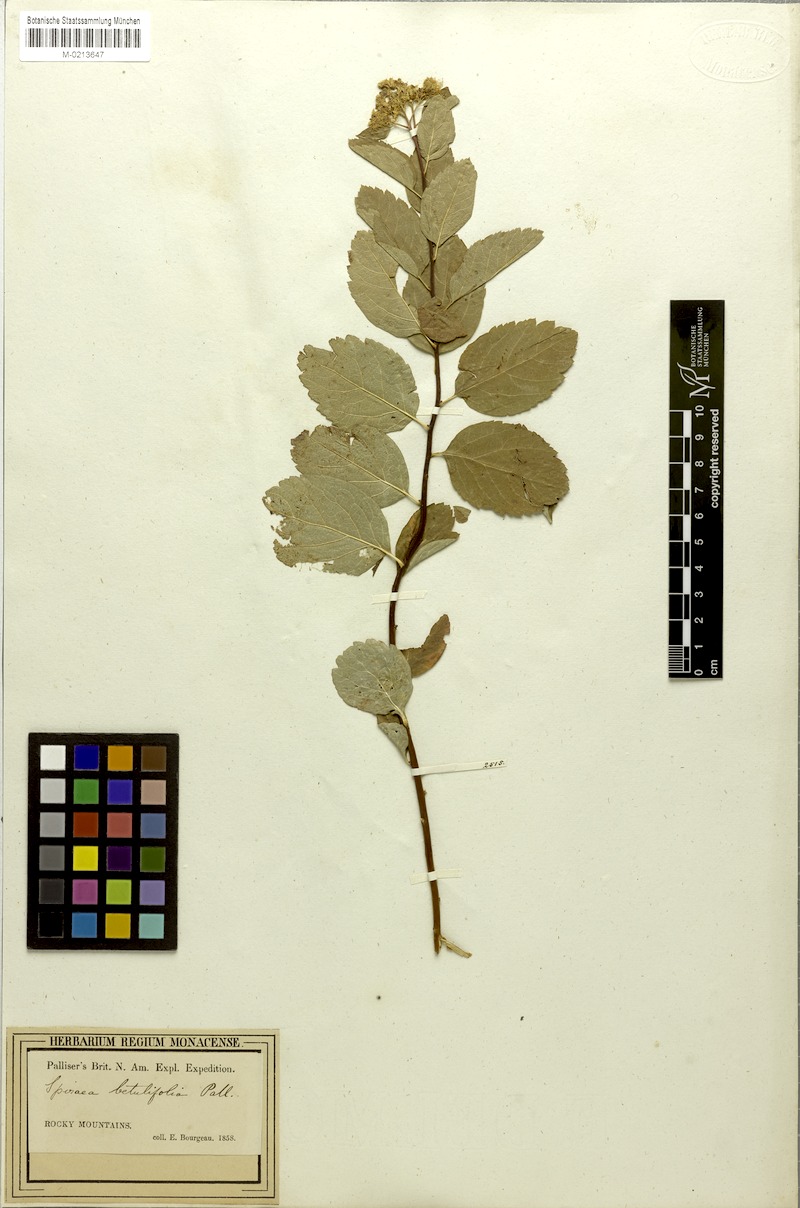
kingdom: Plantae
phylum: Tracheophyta
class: Magnoliopsida
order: Rosales
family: Rosaceae
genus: Spiraea
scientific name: Spiraea betulifolia
